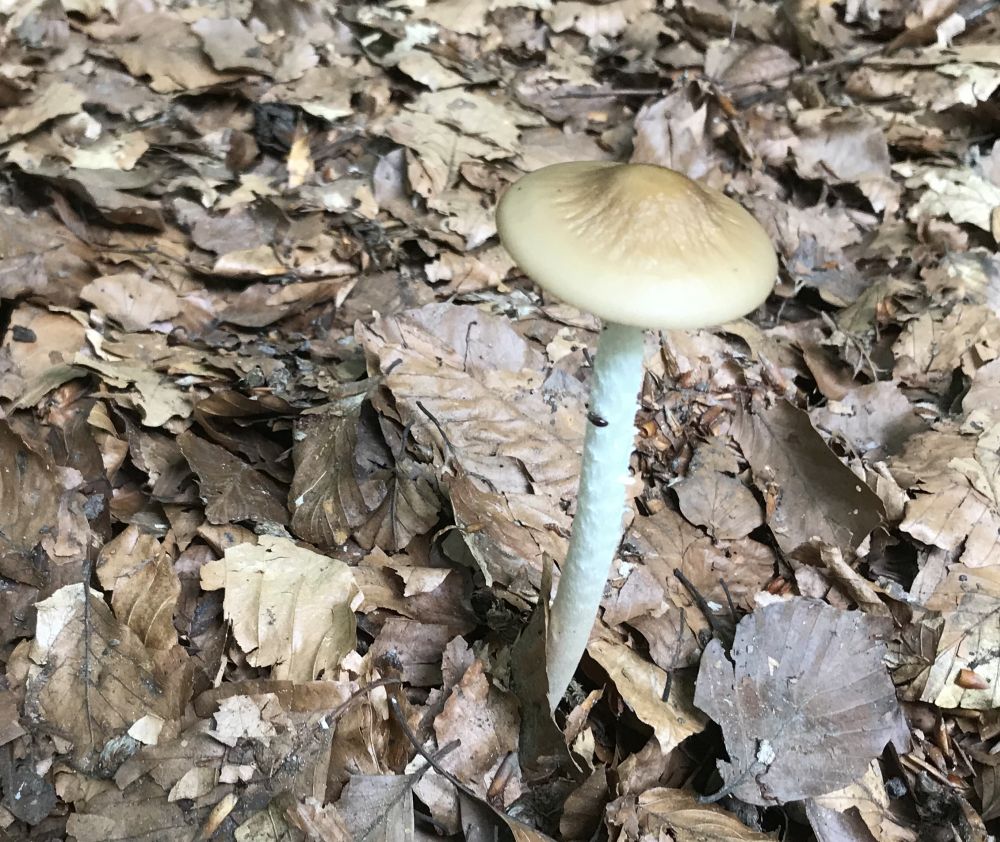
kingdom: Fungi
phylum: Basidiomycota
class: Agaricomycetes
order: Agaricales
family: Physalacriaceae
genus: Hymenopellis
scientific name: Hymenopellis radicata
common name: almindelig pælerodshat
